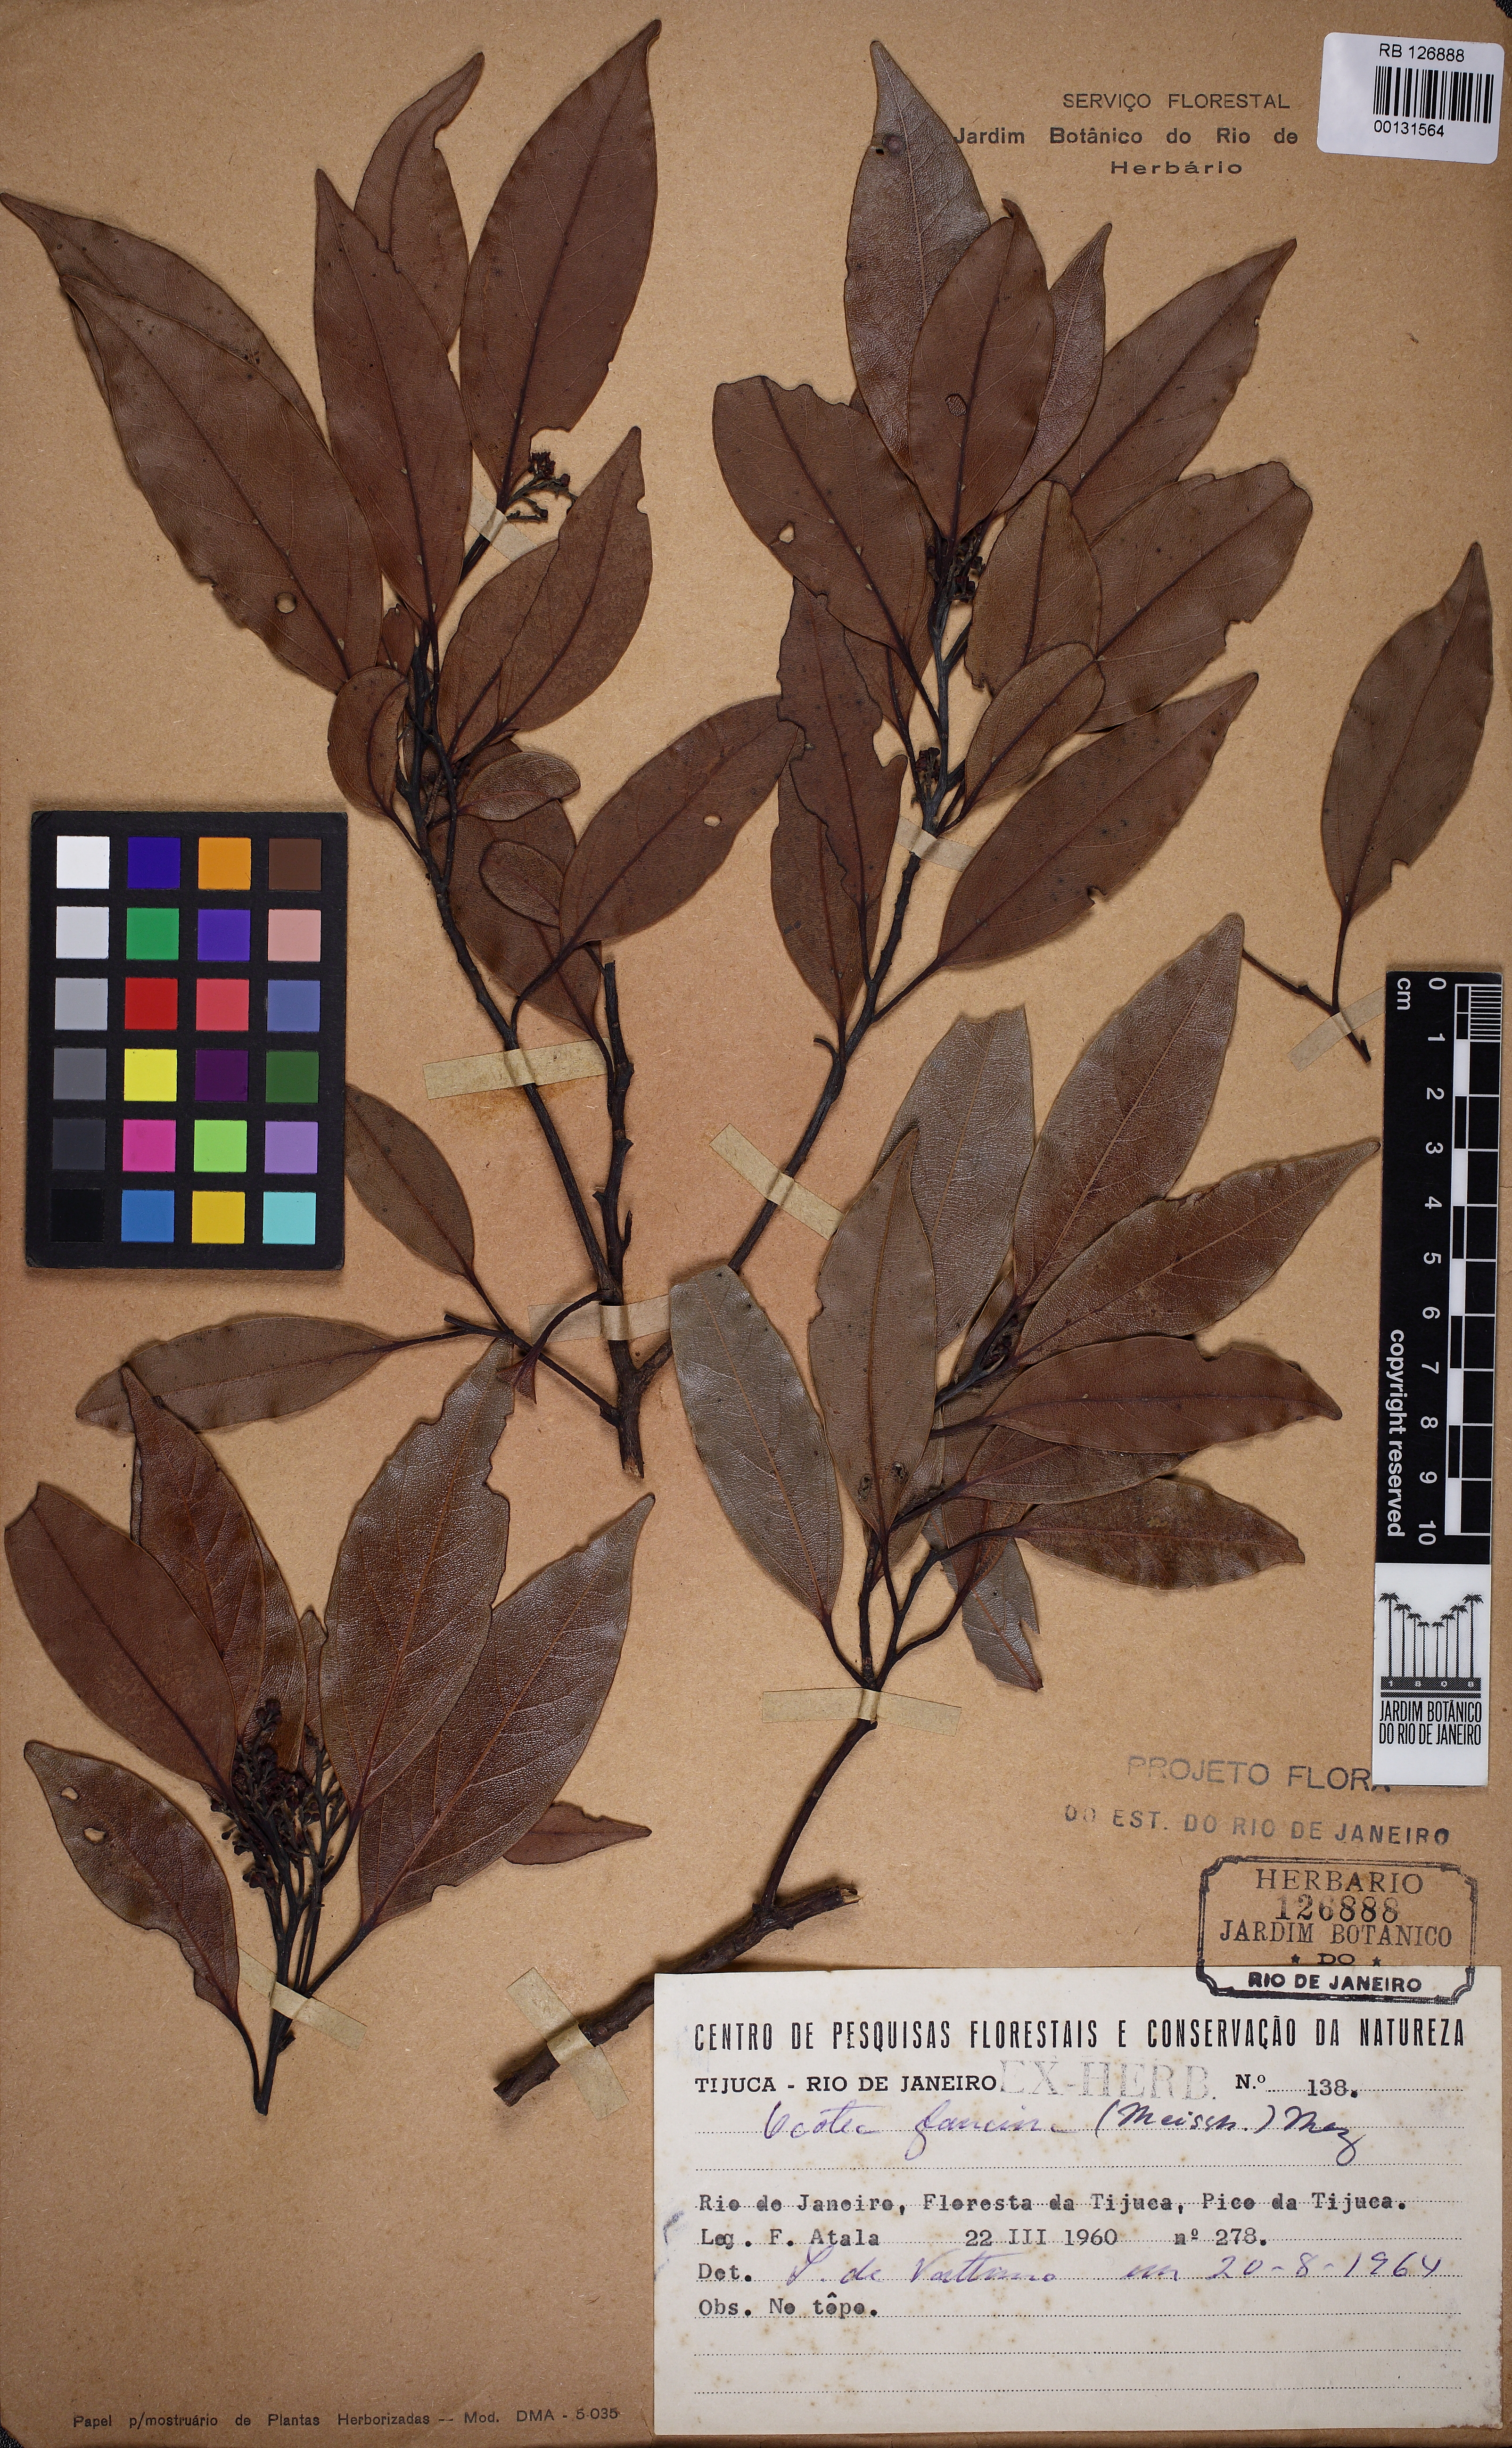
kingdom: Plantae
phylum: Tracheophyta
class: Magnoliopsida
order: Laurales
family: Lauraceae
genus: Ocotea
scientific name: Ocotea glaziovii
